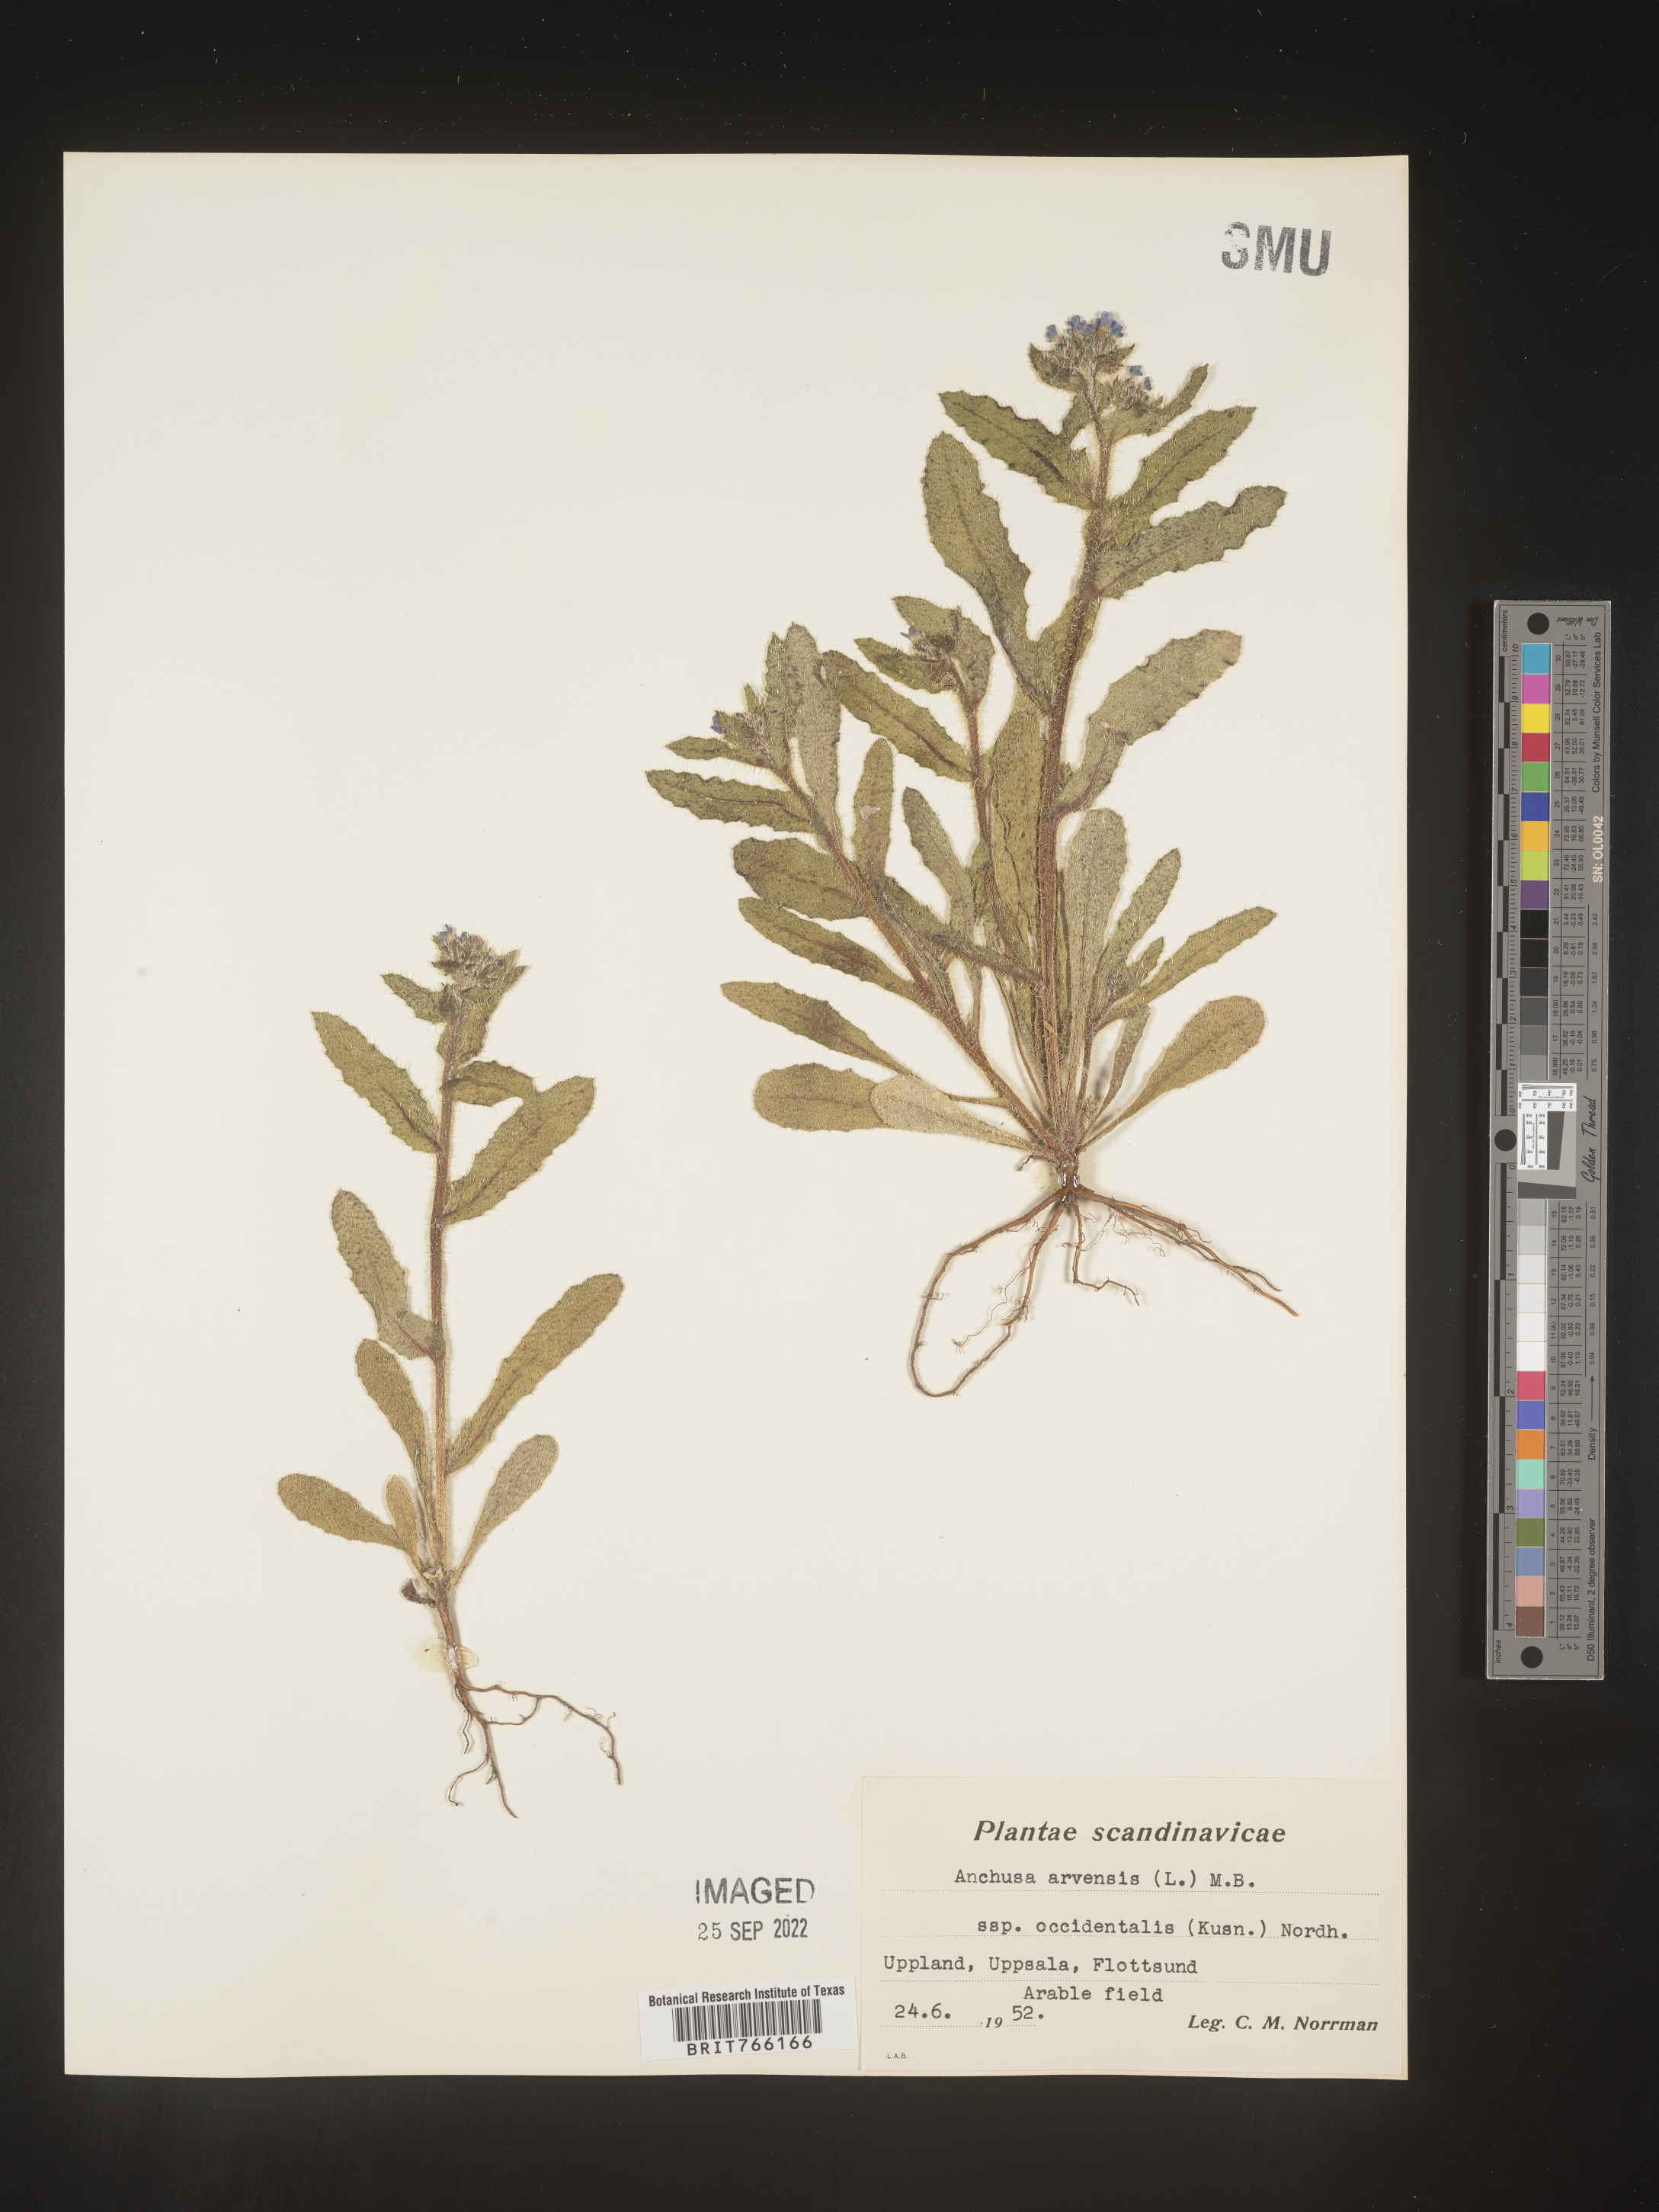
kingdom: Plantae
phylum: Tracheophyta
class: Magnoliopsida
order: Boraginales
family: Boraginaceae
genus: Anchusa
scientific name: Anchusa
